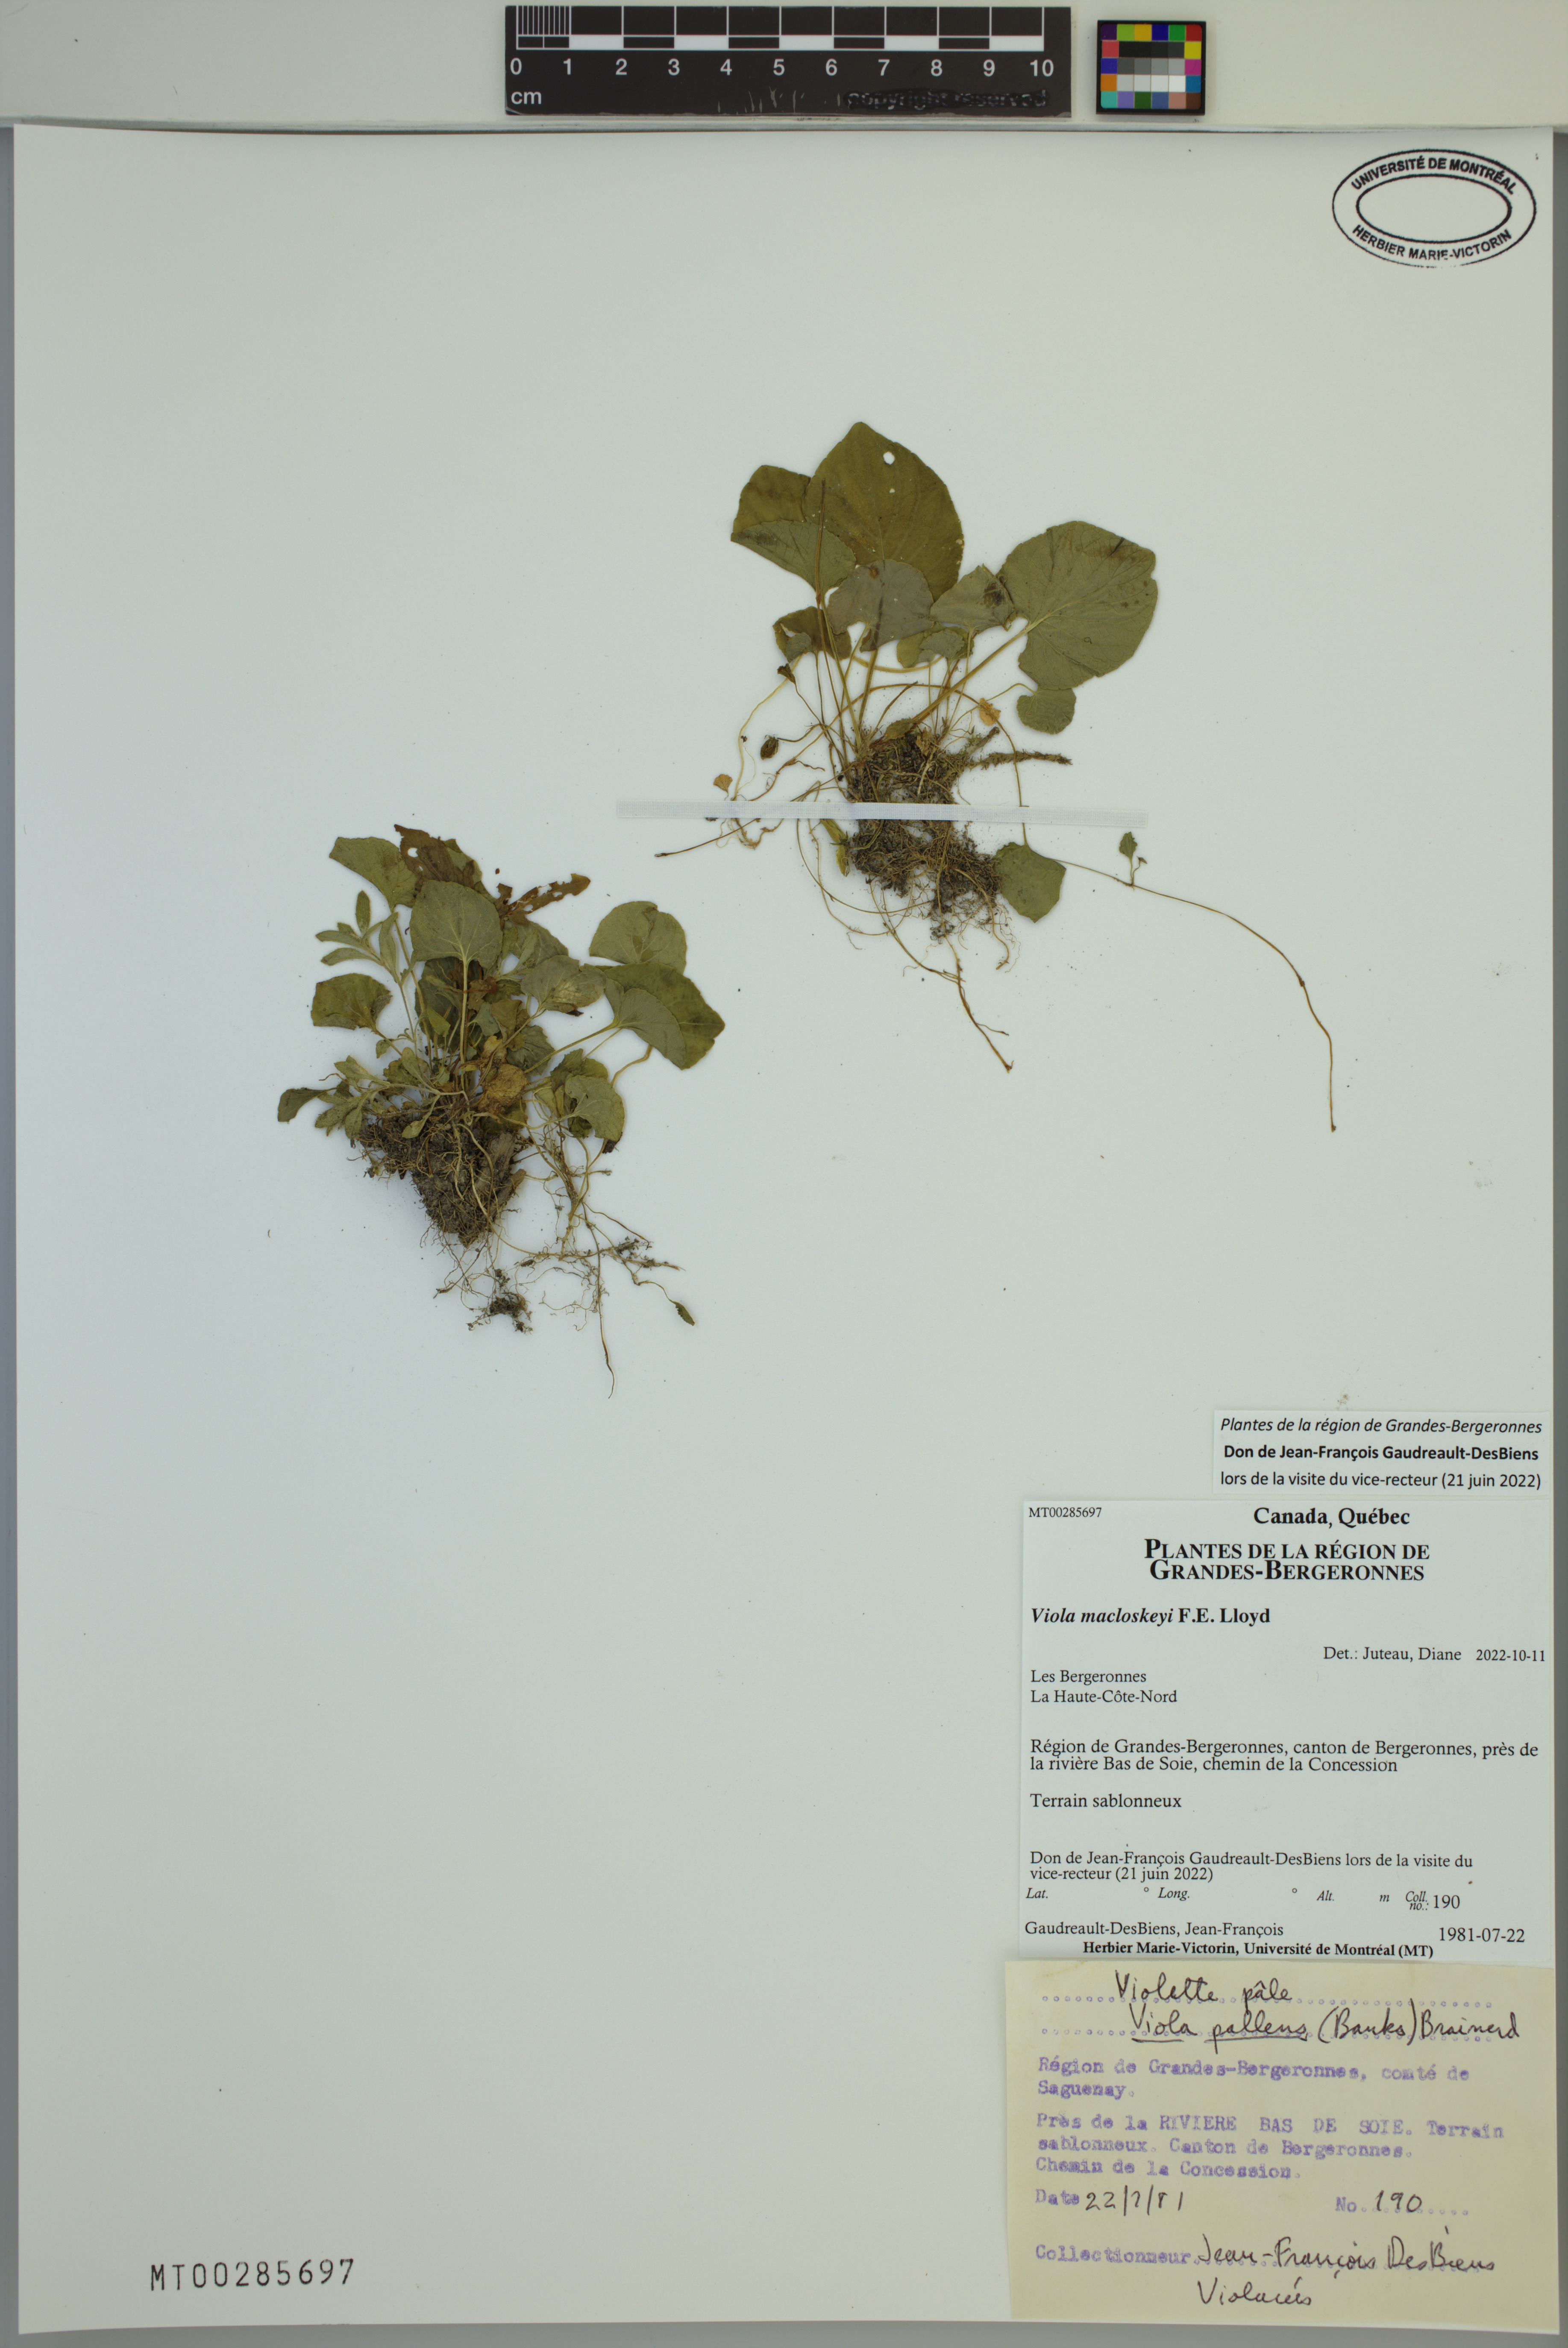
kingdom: Plantae
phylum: Tracheophyta
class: Magnoliopsida
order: Malpighiales
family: Violaceae
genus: Viola
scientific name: Viola macloskeyi
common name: Macloskey's violet
